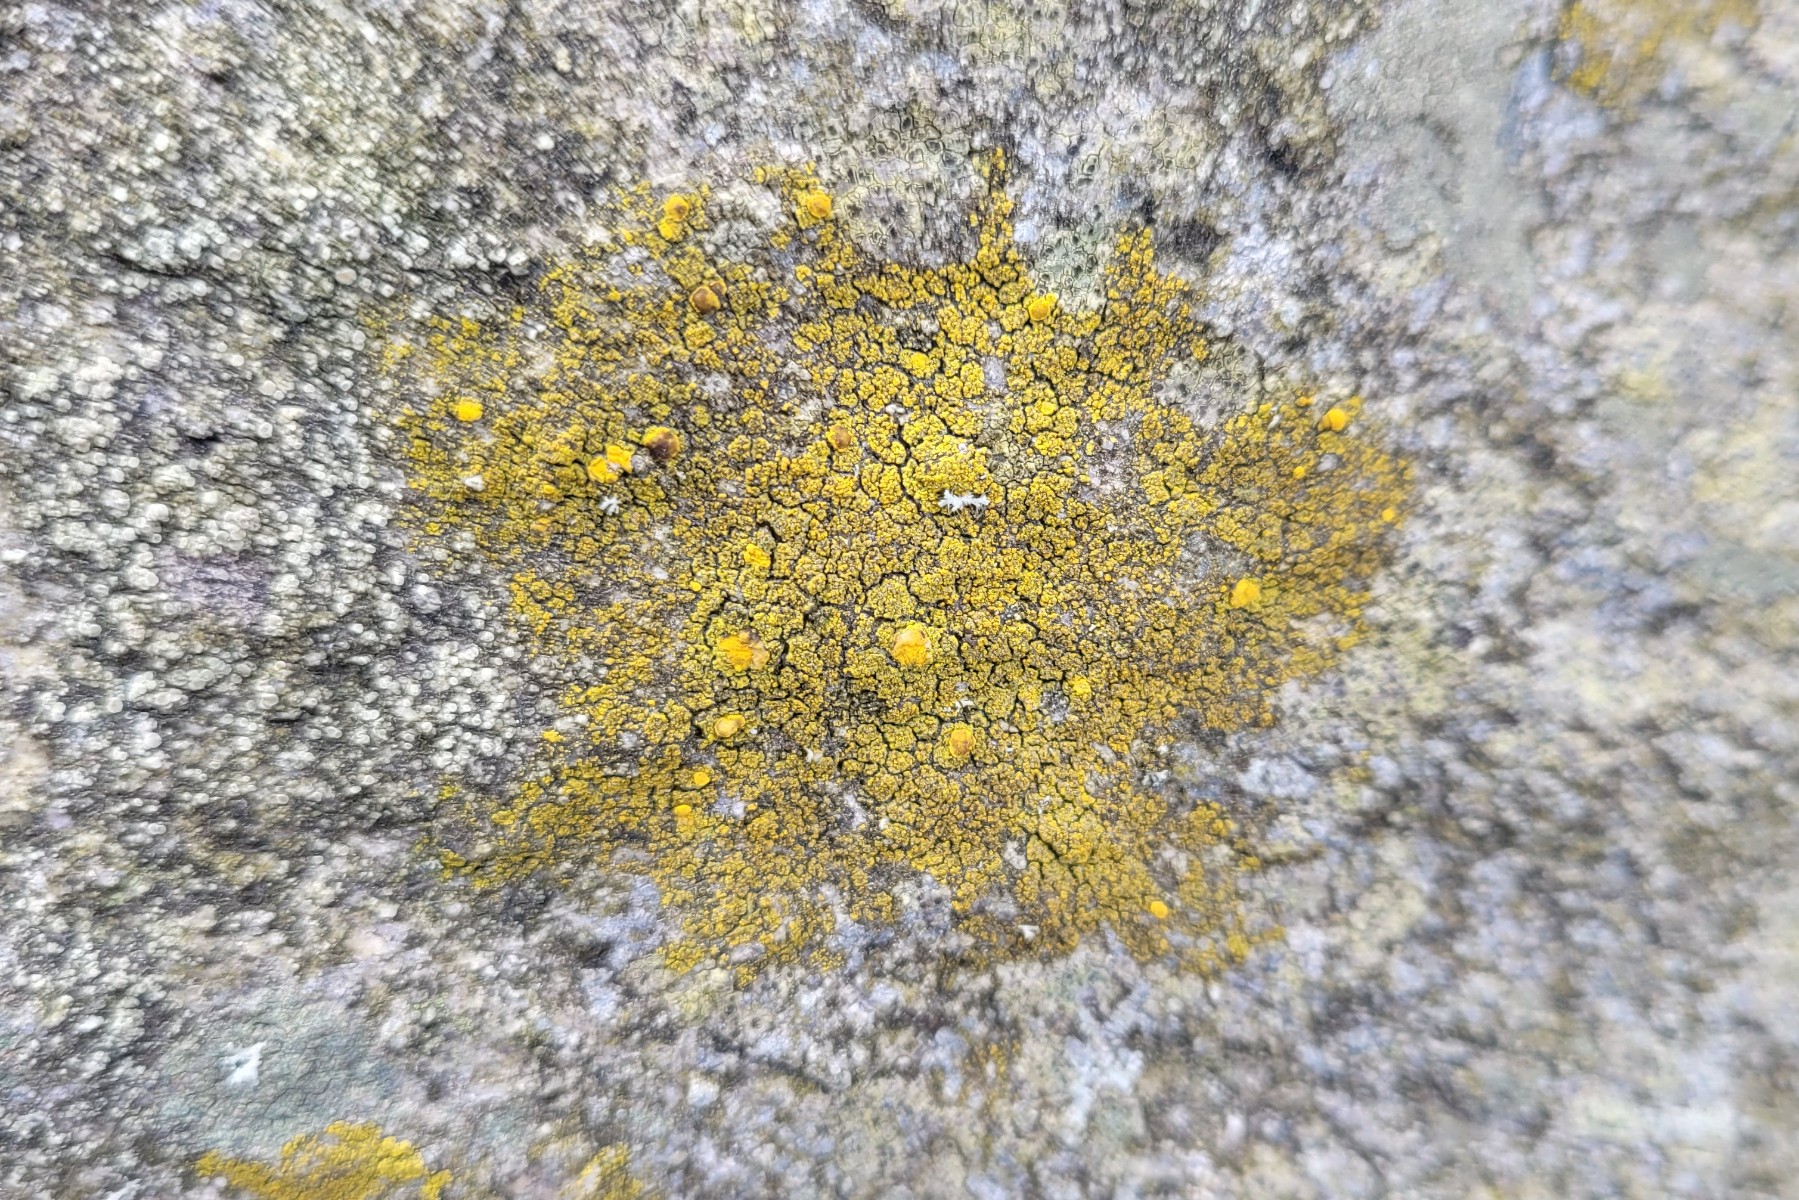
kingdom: Fungi
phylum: Ascomycota
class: Candelariomycetes
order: Candelariales
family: Candelariaceae
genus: Candelariella
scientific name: Candelariella vitellina
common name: almindelig æggeblommelav
